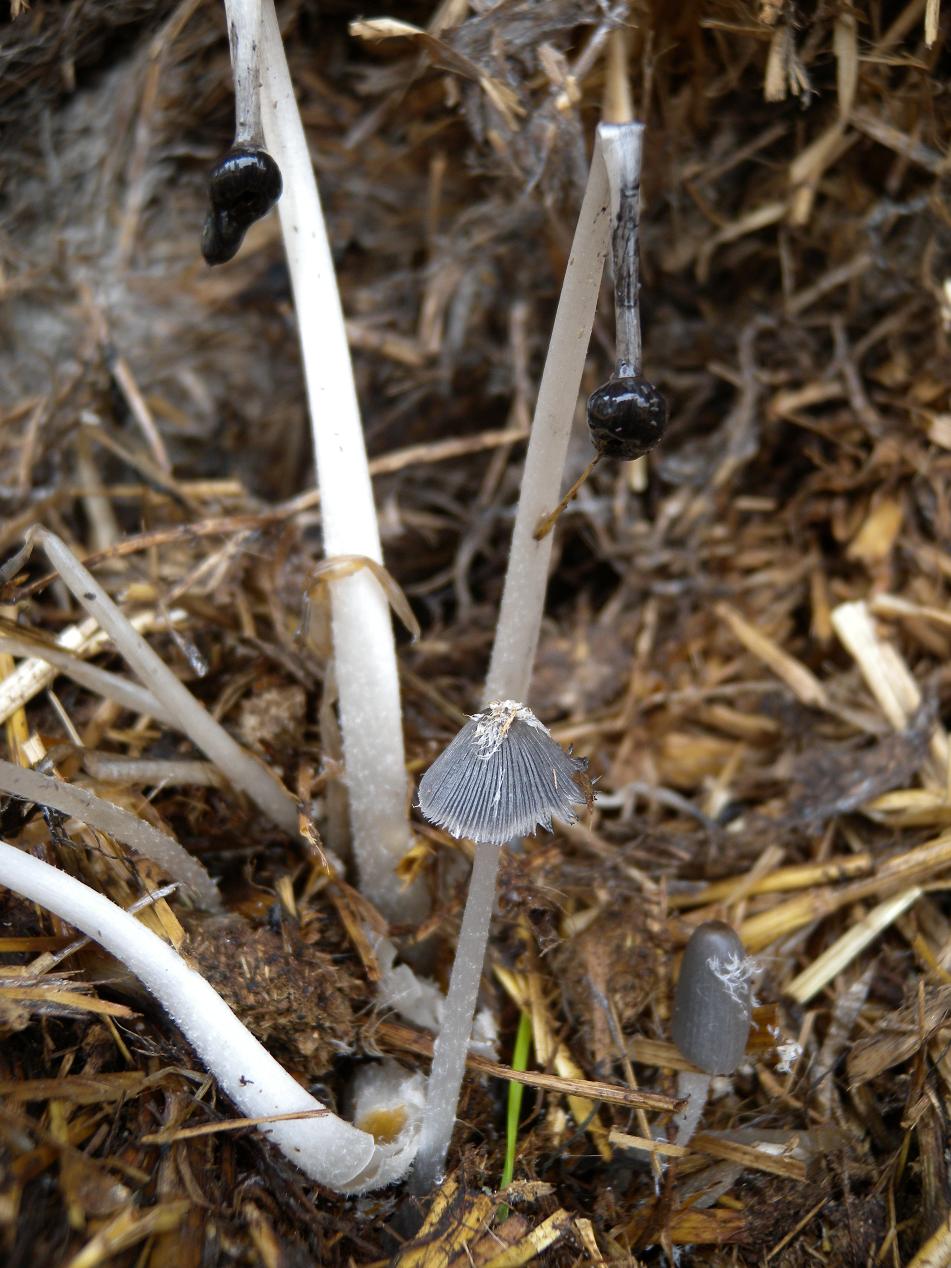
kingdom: Fungi
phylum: Basidiomycota
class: Agaricomycetes
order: Agaricales
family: Psathyrellaceae
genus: Coprinopsis
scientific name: Coprinopsis macrocephala
